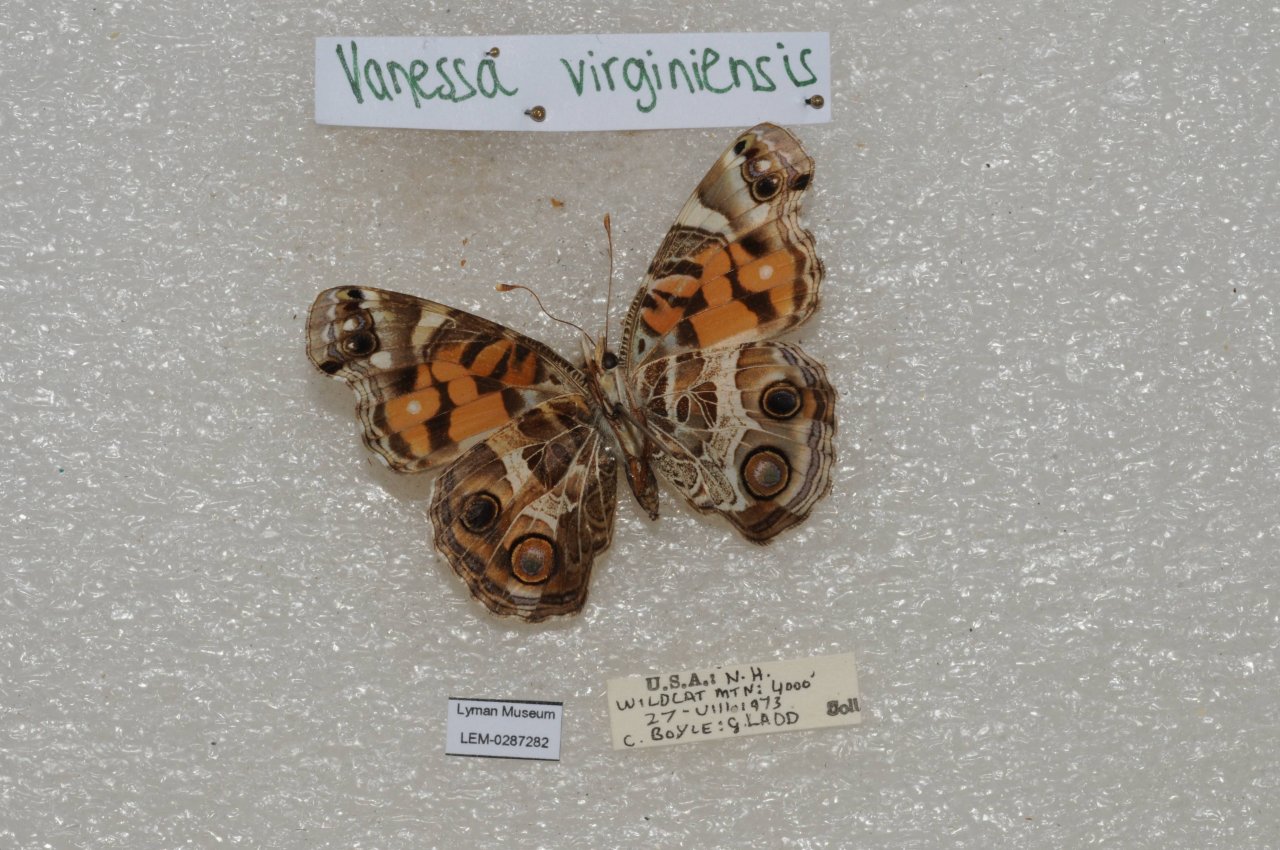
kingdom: Animalia
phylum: Arthropoda
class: Insecta
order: Lepidoptera
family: Nymphalidae
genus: Vanessa
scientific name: Vanessa virginiensis
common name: American Lady
